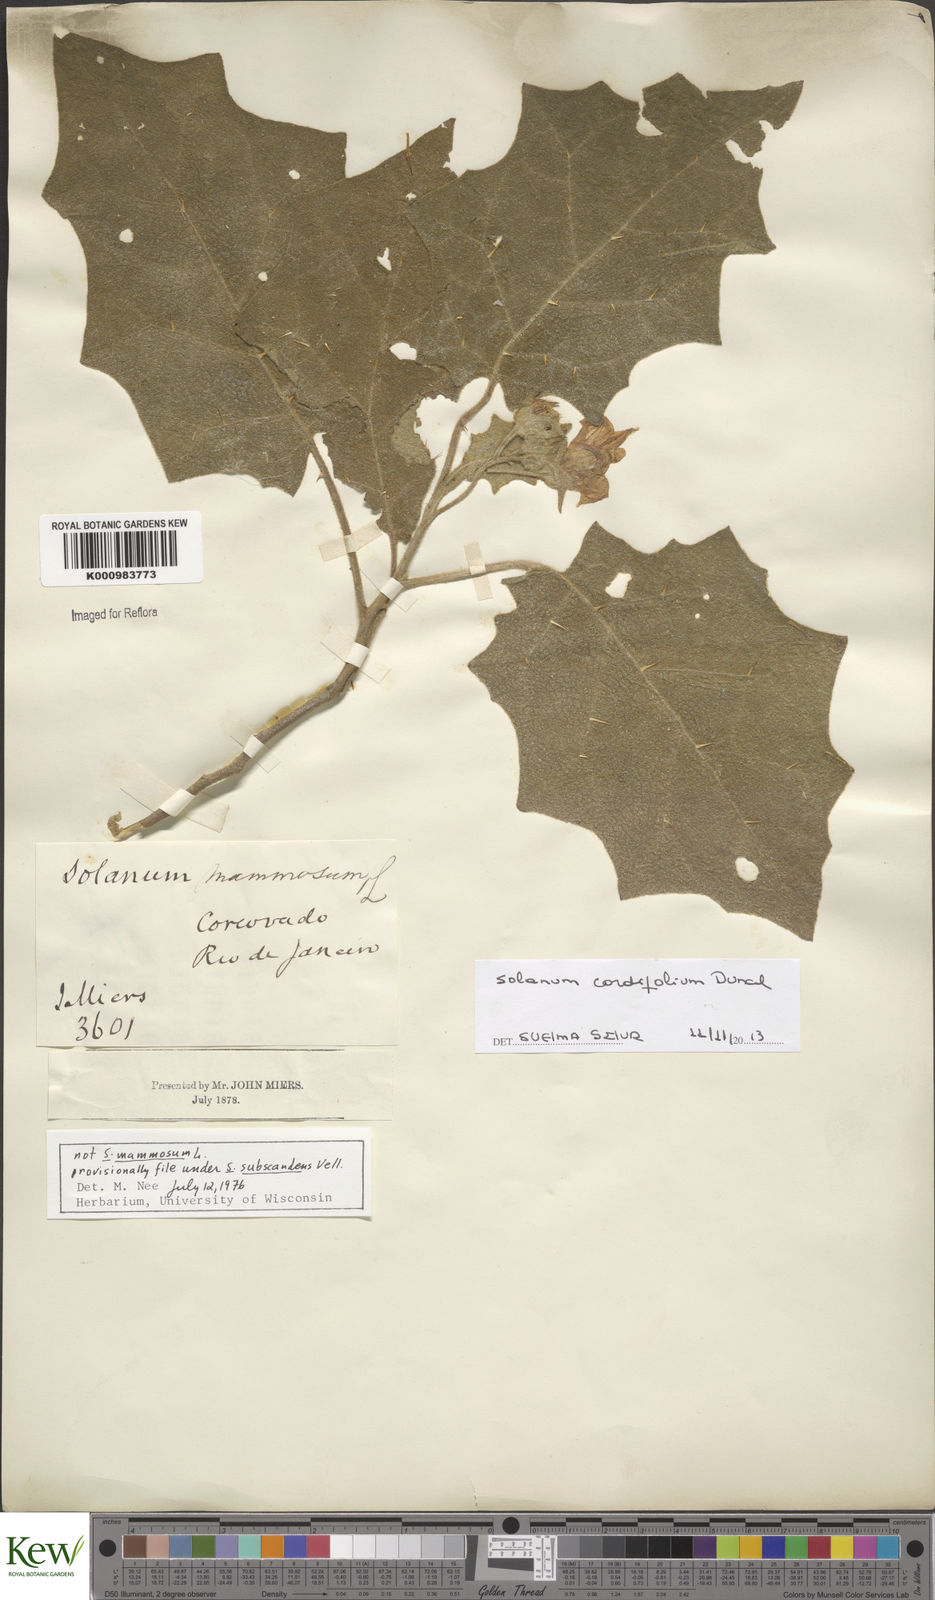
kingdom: Plantae
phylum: Tracheophyta
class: Magnoliopsida
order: Solanales
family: Solanaceae
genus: Solanum
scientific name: Solanum cordifolium
